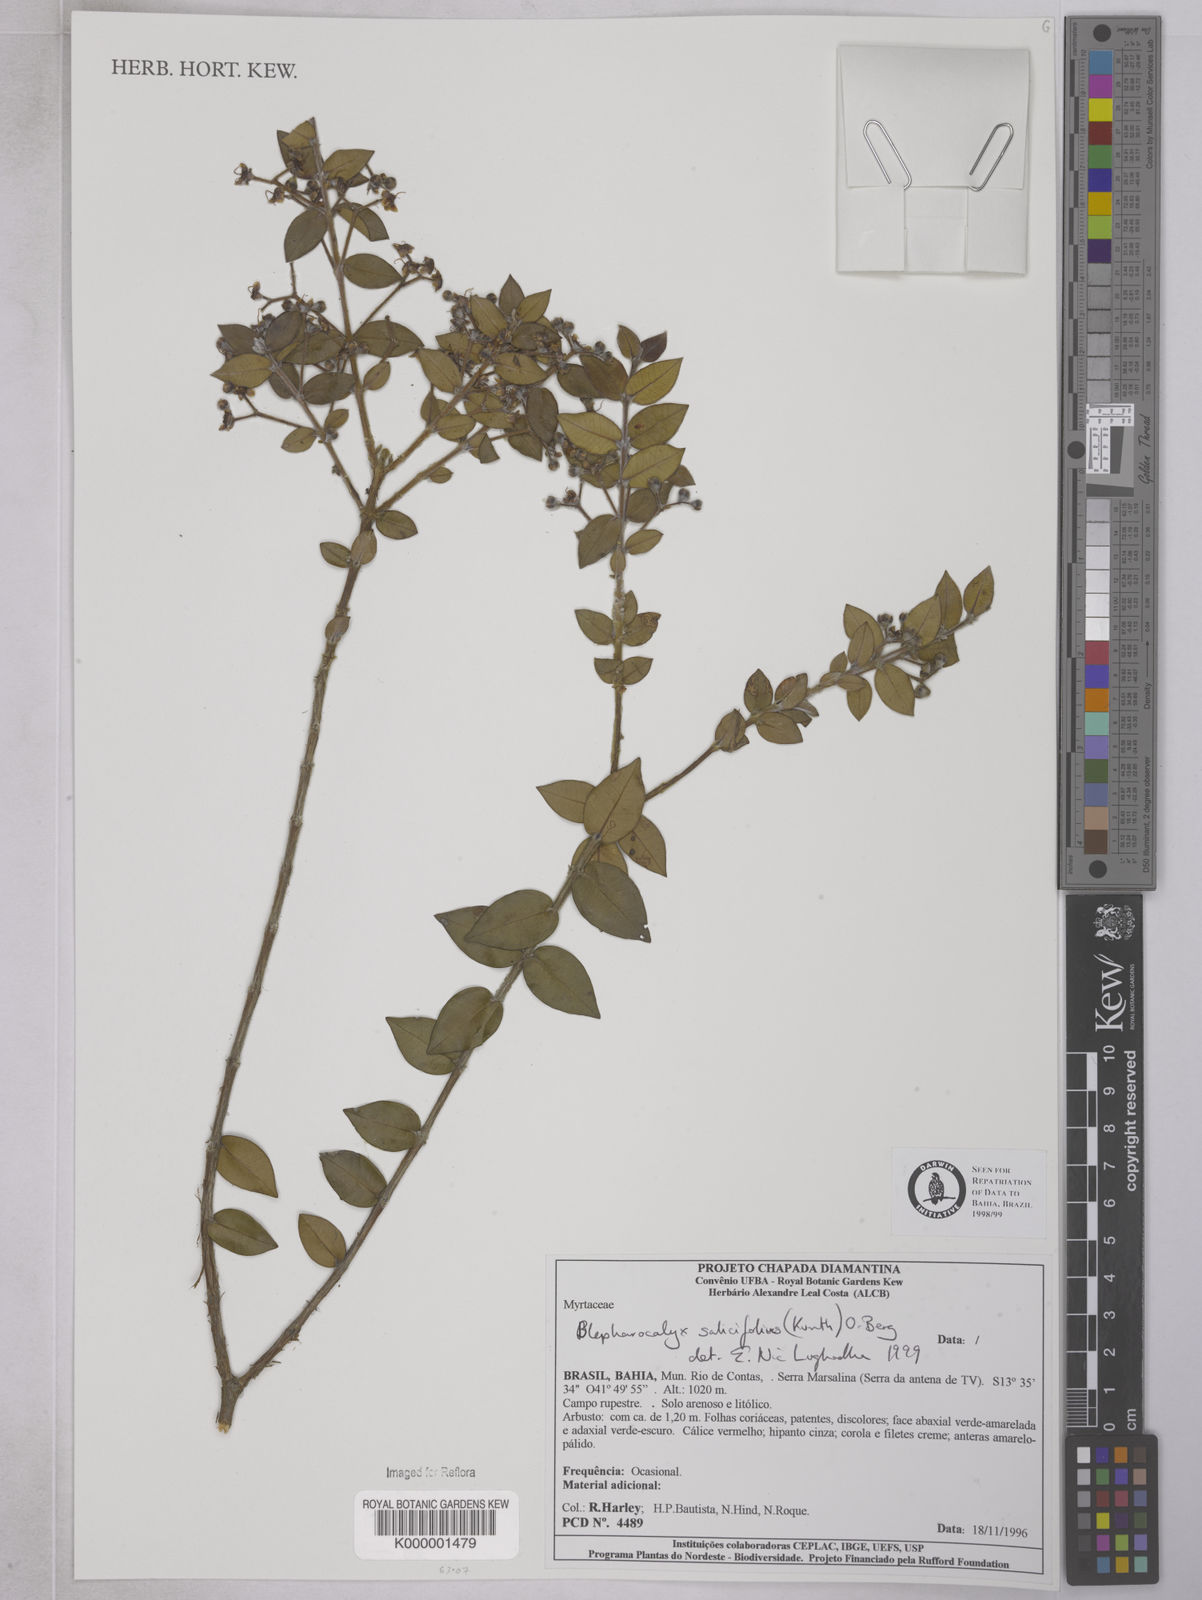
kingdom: Plantae
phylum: Tracheophyta
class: Magnoliopsida
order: Myrtales
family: Myrtaceae
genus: Blepharocalyx
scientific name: Blepharocalyx salicifolius
